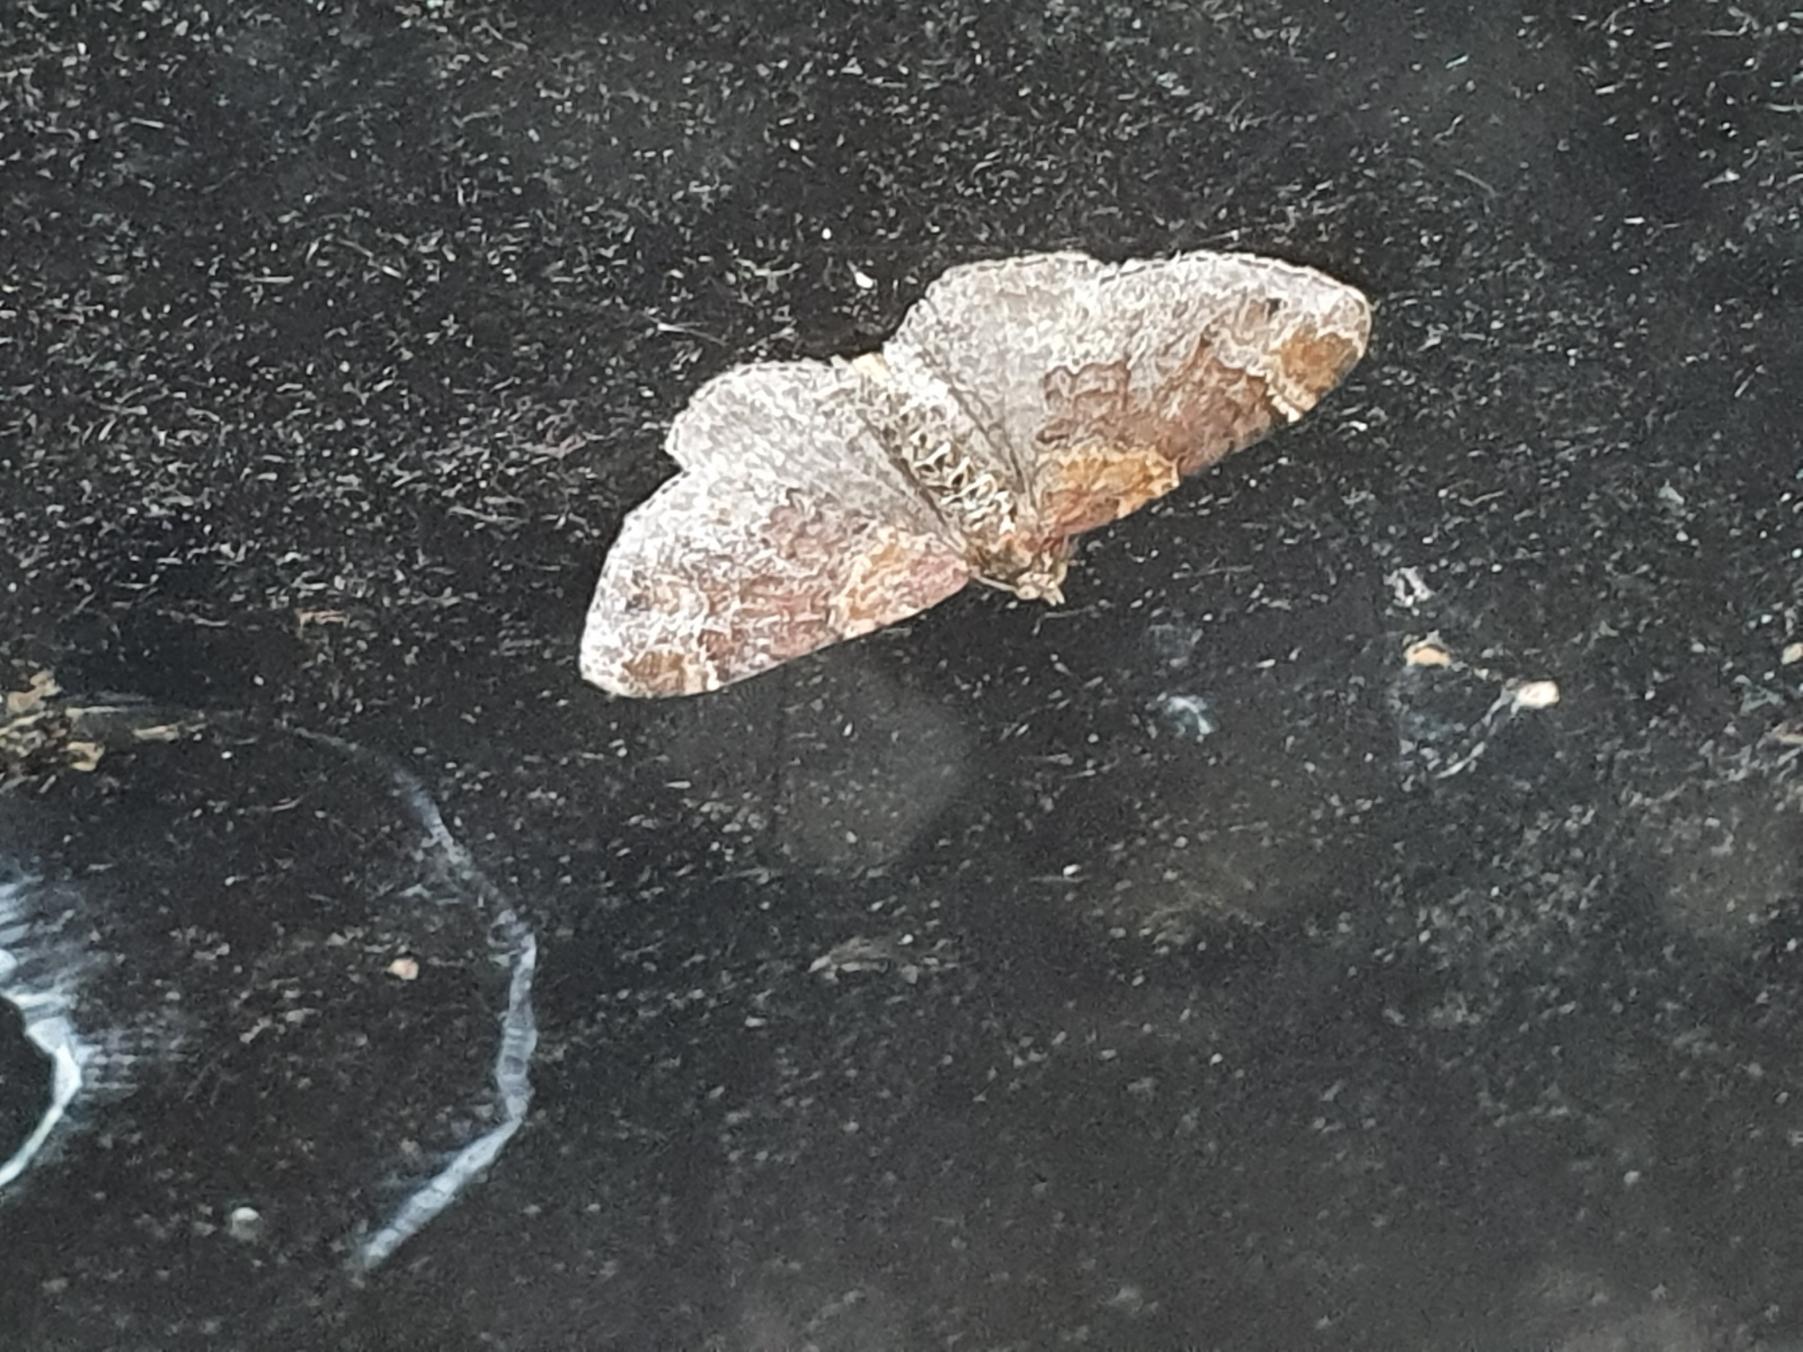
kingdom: Animalia
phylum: Arthropoda
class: Insecta
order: Lepidoptera
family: Geometridae
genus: Xanthorhoe
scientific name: Xanthorhoe ferrugata
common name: Rustbladmåler
